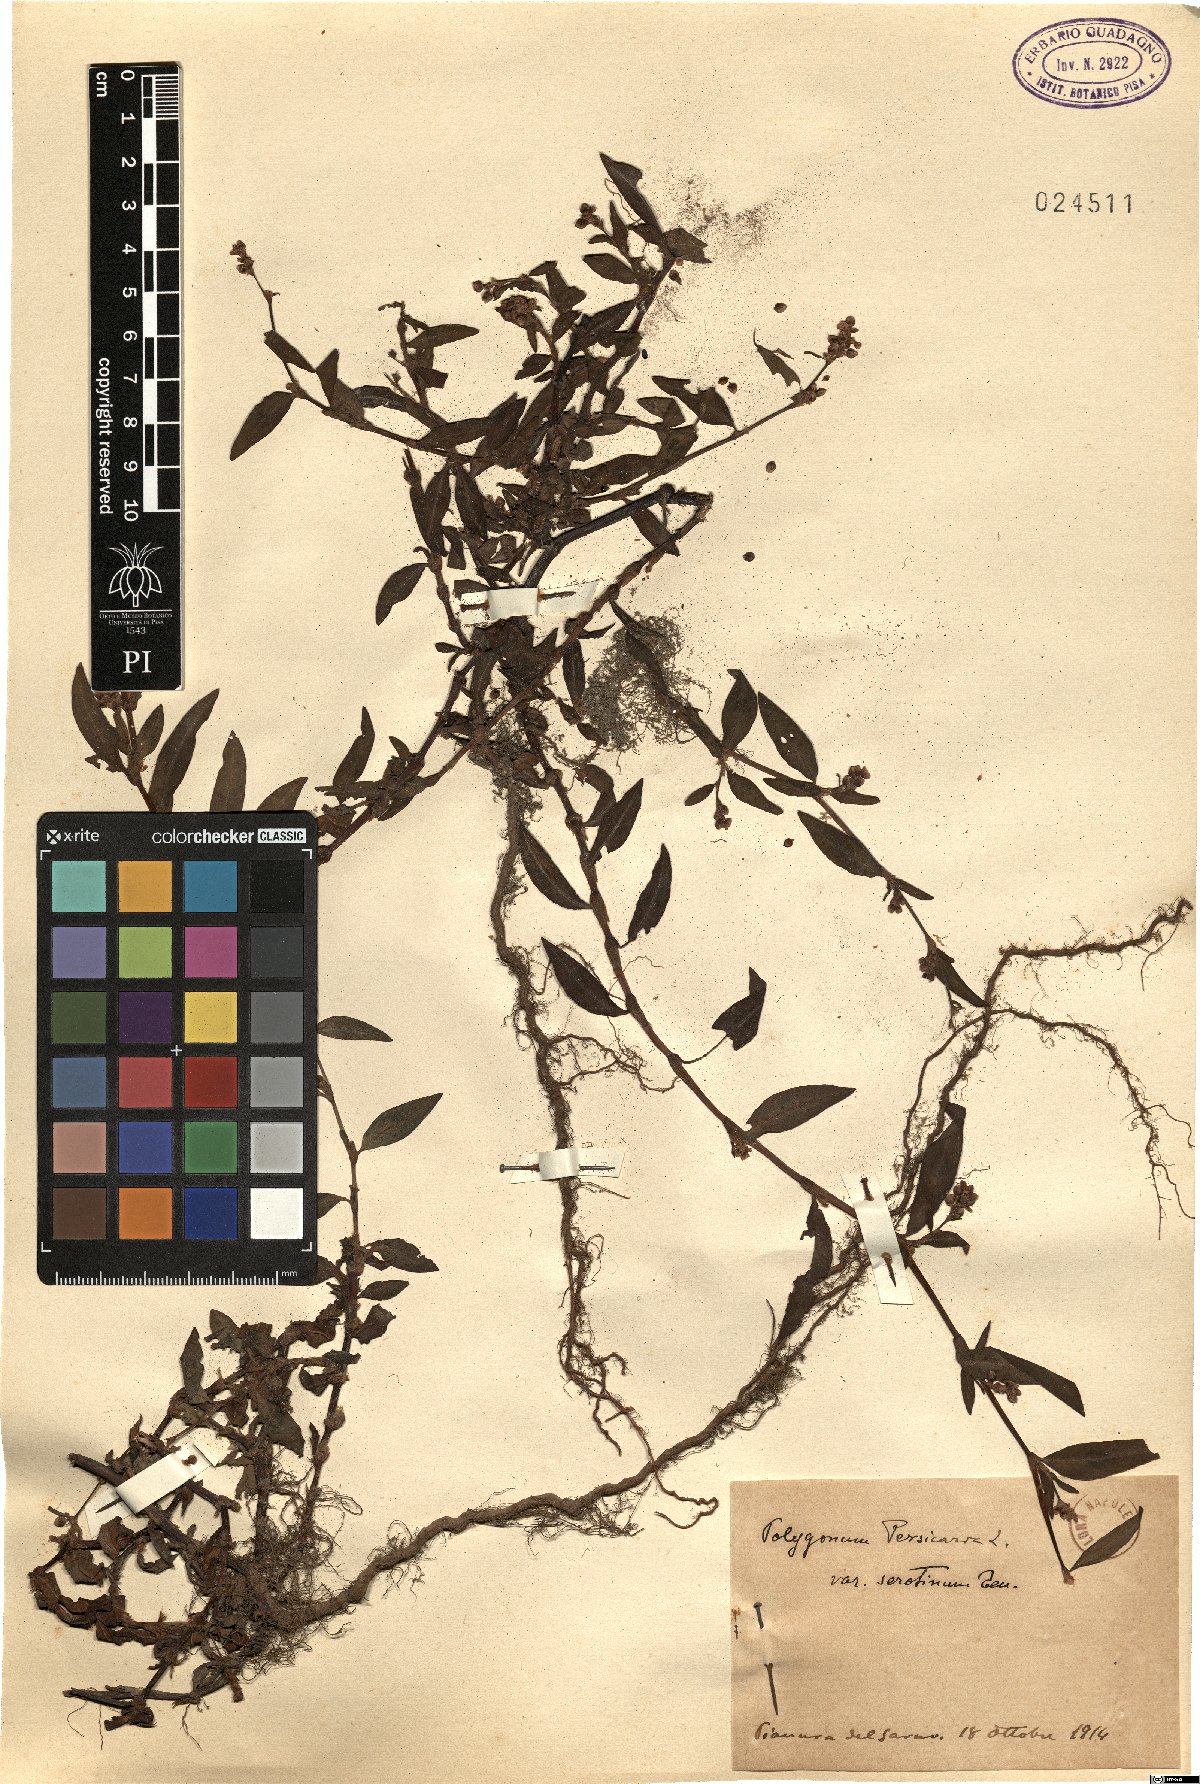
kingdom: Plantae
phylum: Tracheophyta
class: Magnoliopsida
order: Caryophyllales
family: Polygonaceae
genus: Polygonum
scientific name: Polygonum persicaria
